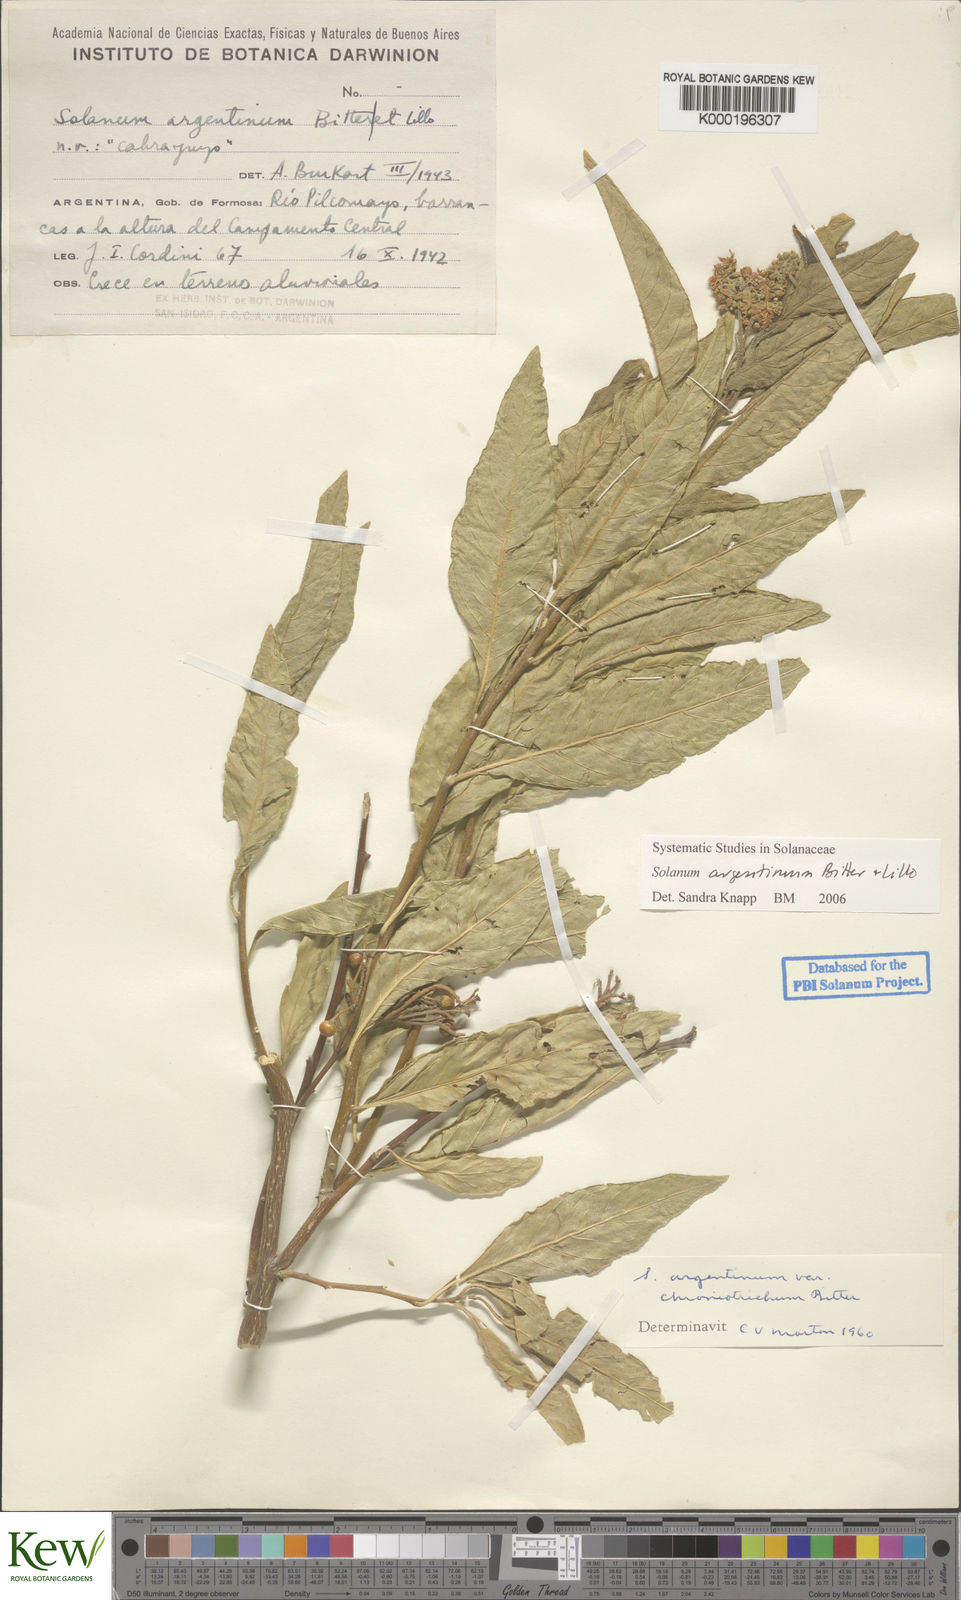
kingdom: Plantae
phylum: Tracheophyta
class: Magnoliopsida
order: Solanales
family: Solanaceae
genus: Solanum
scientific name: Solanum argentinum
